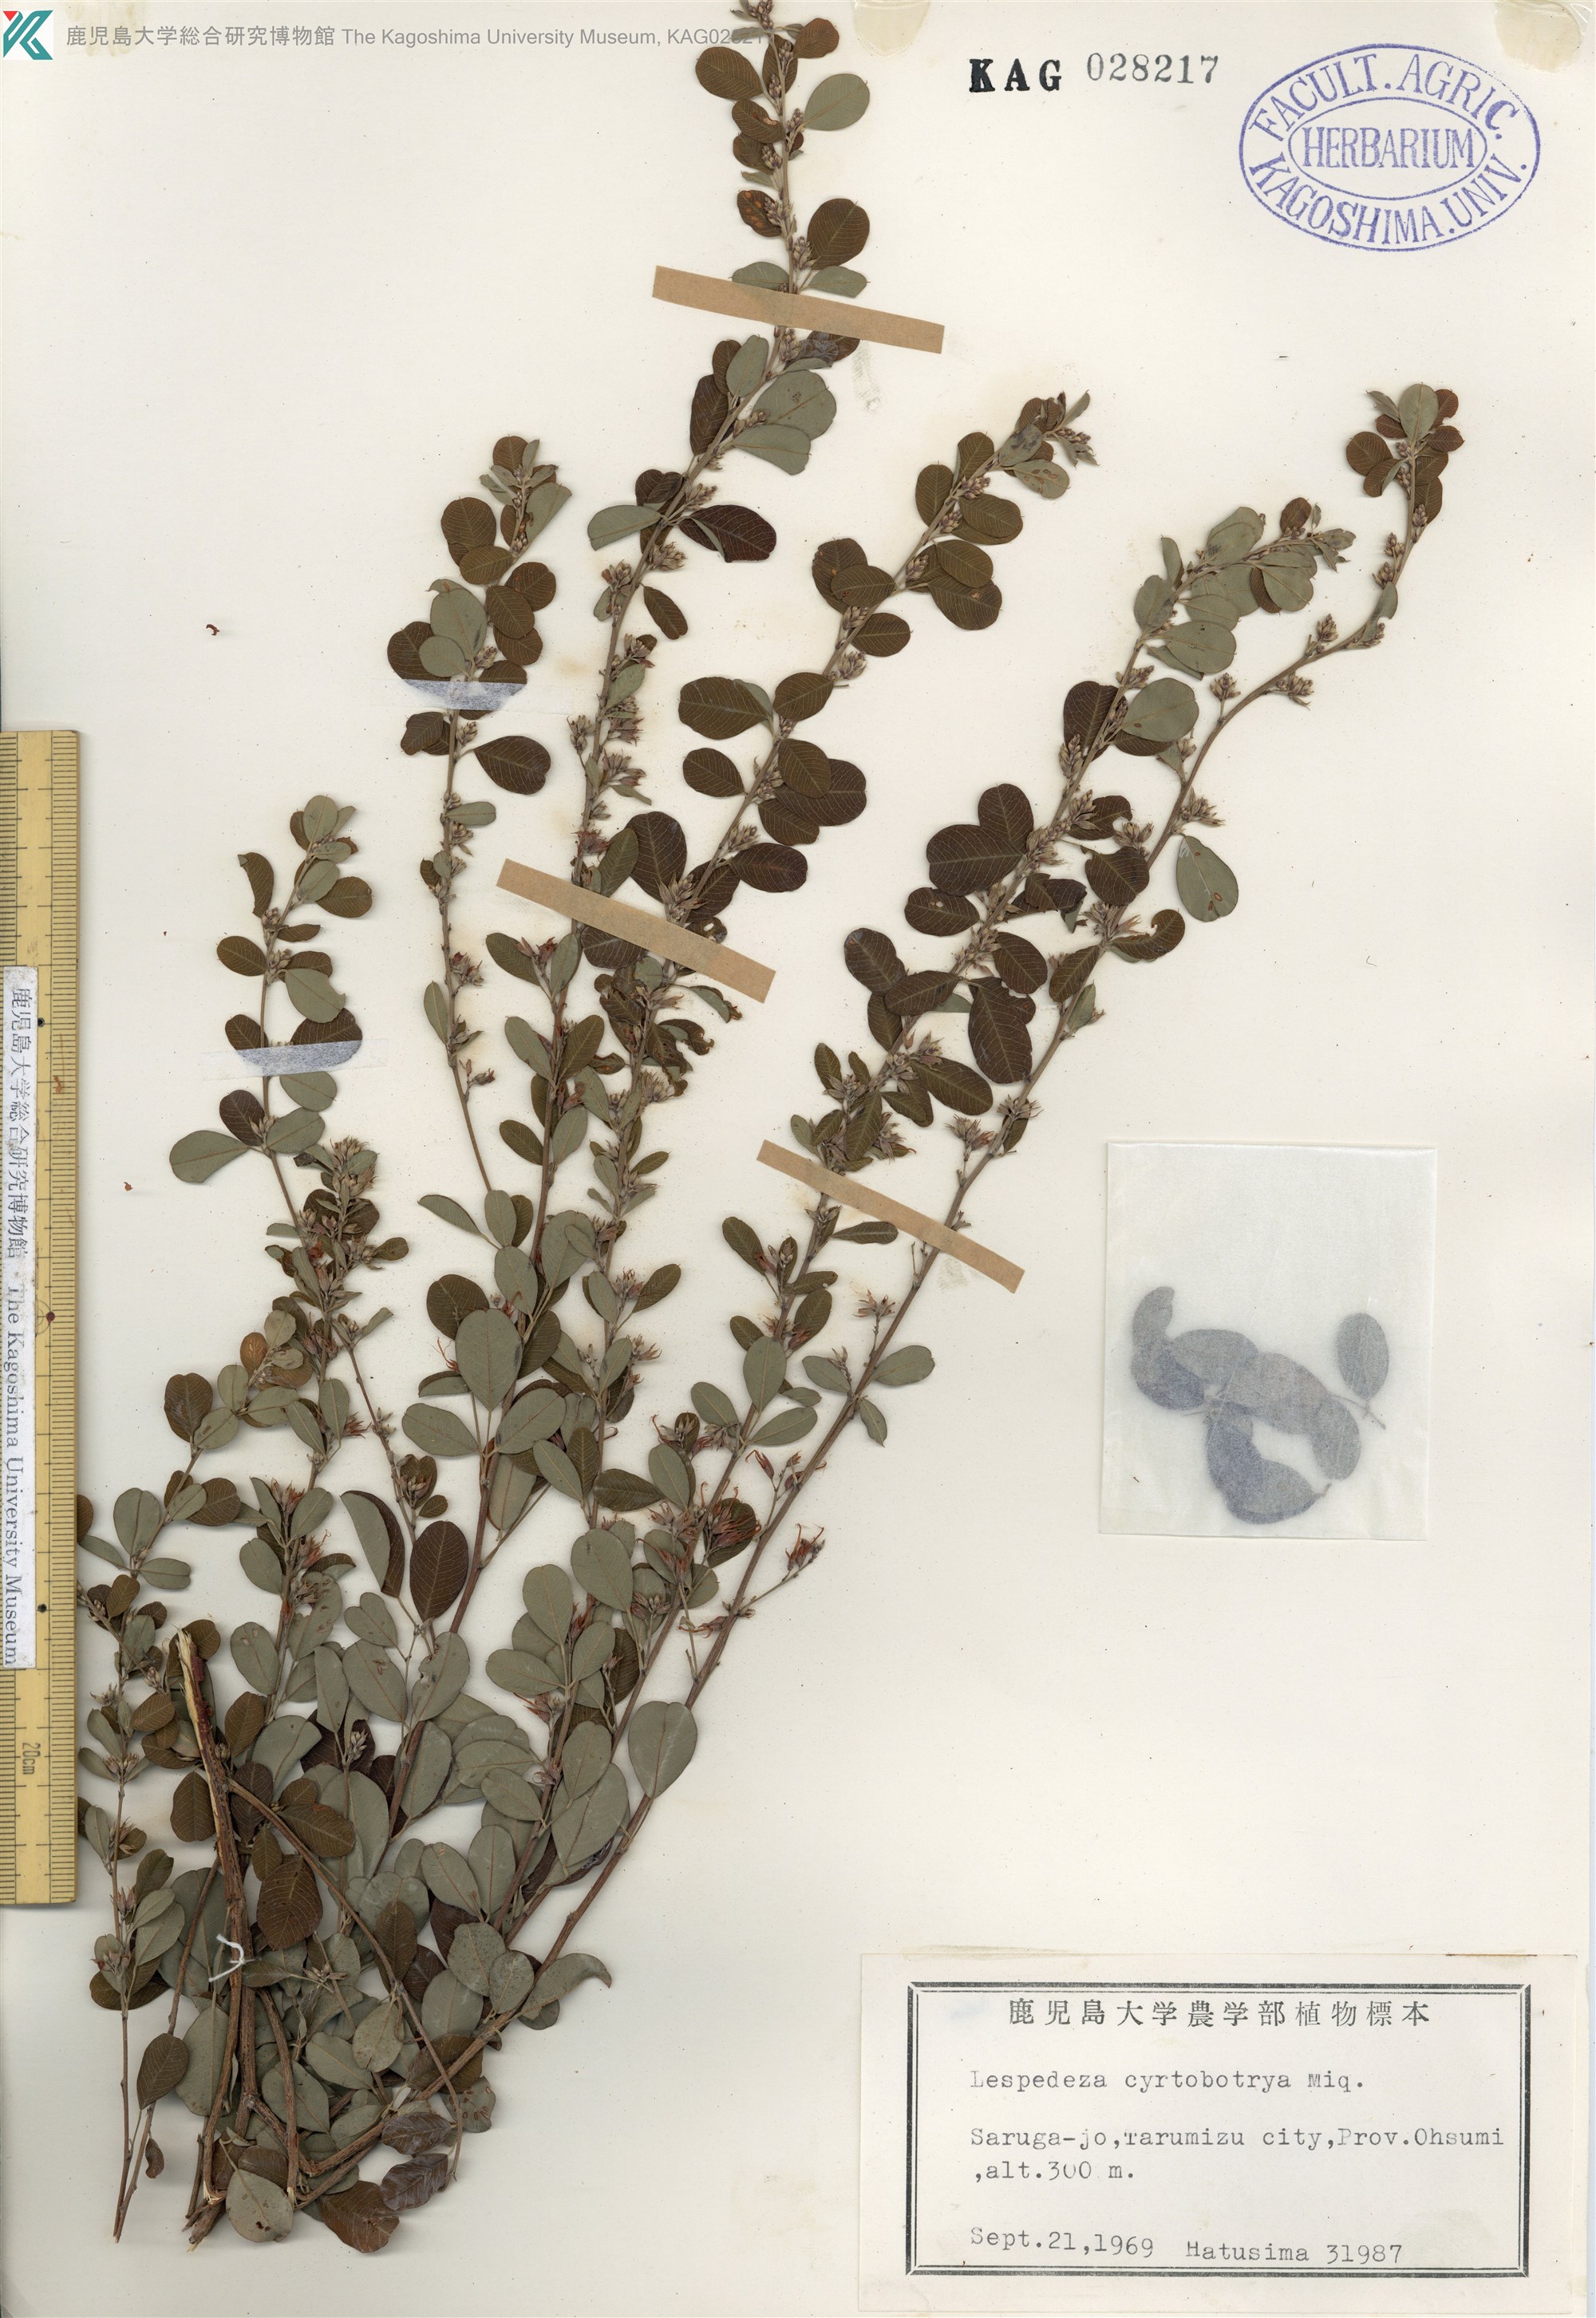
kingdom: Plantae
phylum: Tracheophyta
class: Magnoliopsida
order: Fabales
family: Fabaceae
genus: Lespedeza
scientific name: Lespedeza cyrtobotrya
